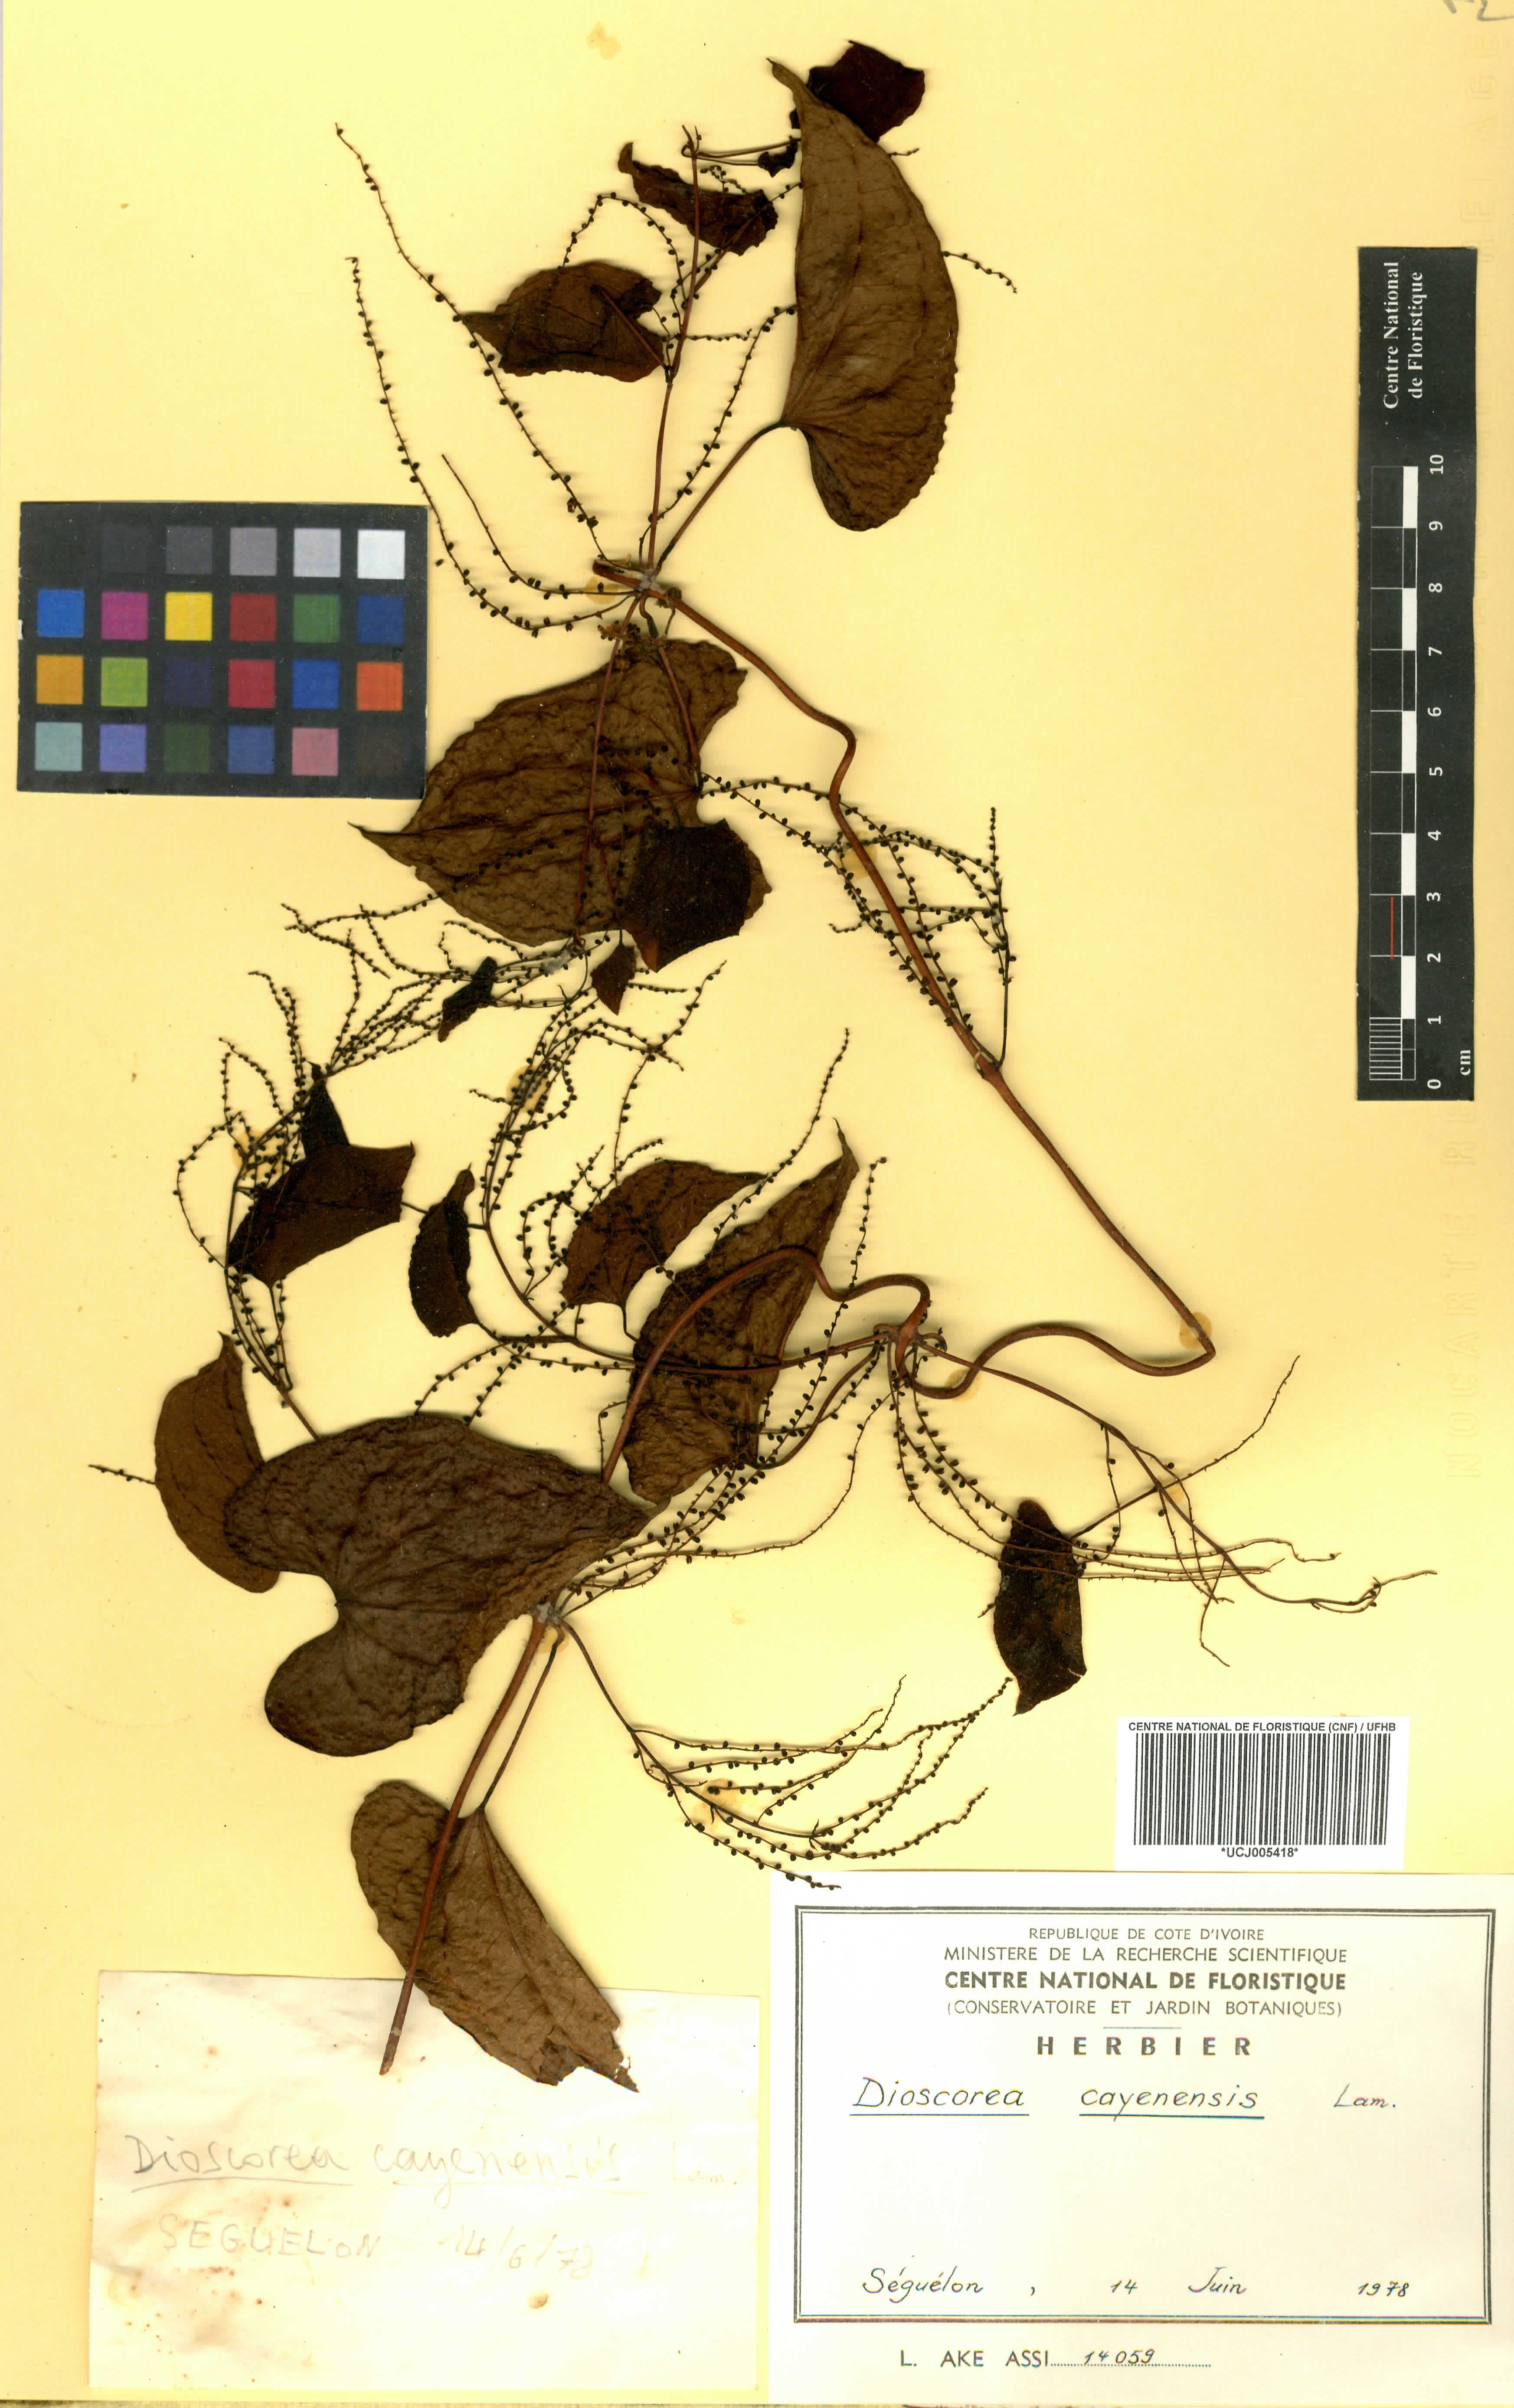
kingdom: Plantae
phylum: Tracheophyta
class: Liliopsida
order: Dioscoreales
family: Dioscoreaceae
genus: Dioscorea
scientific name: Dioscorea cayenensis
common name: Attoto yam
